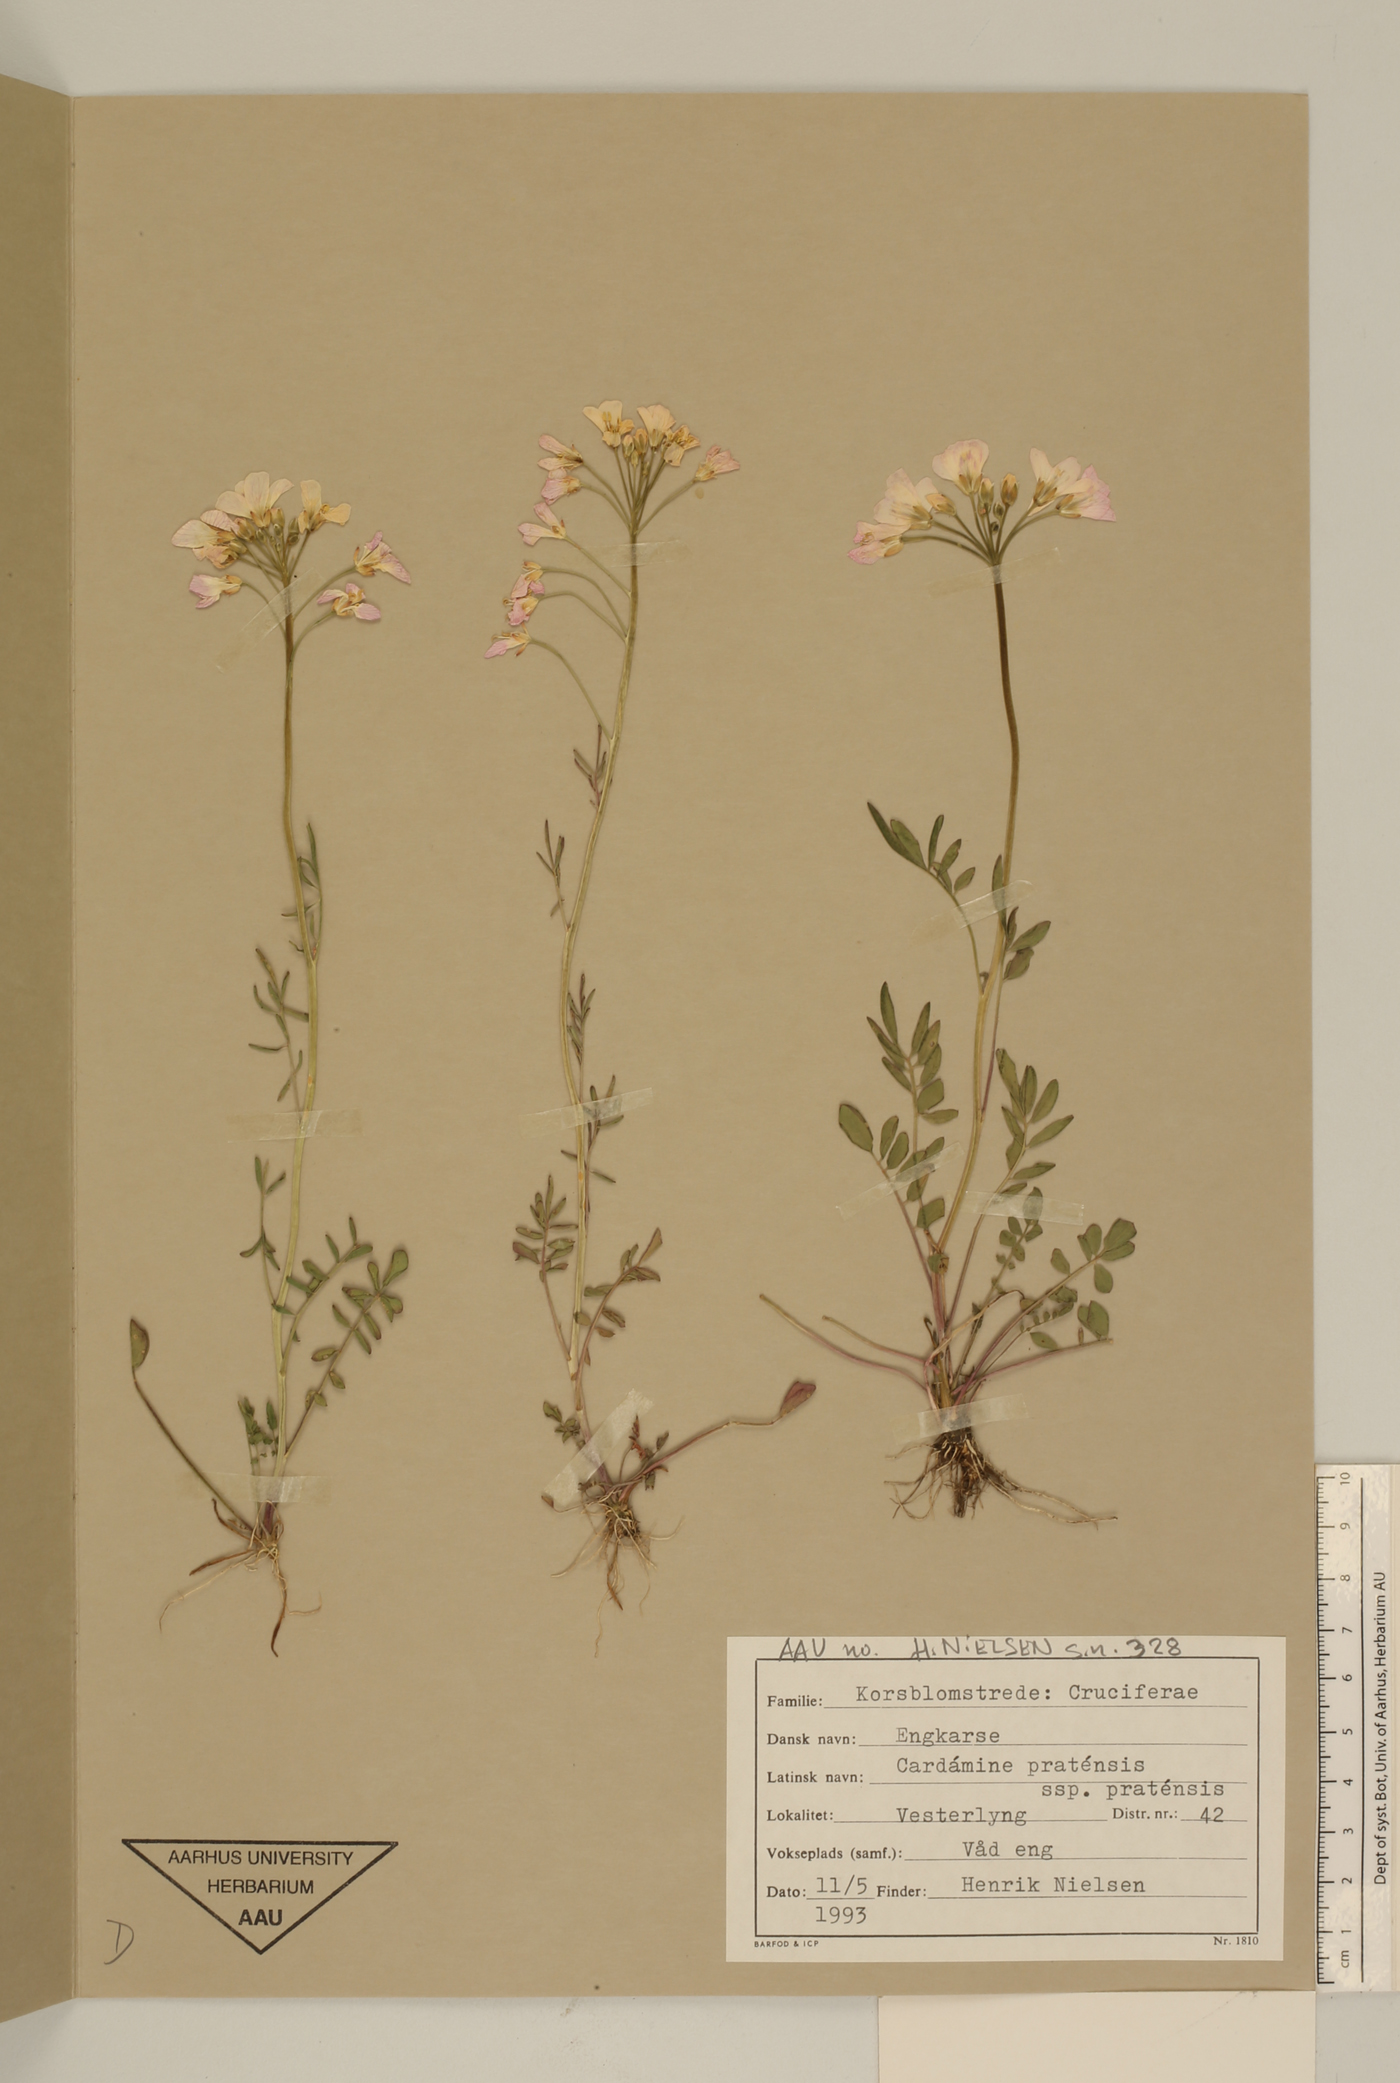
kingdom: Plantae
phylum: Tracheophyta
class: Magnoliopsida
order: Brassicales
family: Brassicaceae
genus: Cardamine
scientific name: Cardamine pratensis
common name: Cuckoo flower
